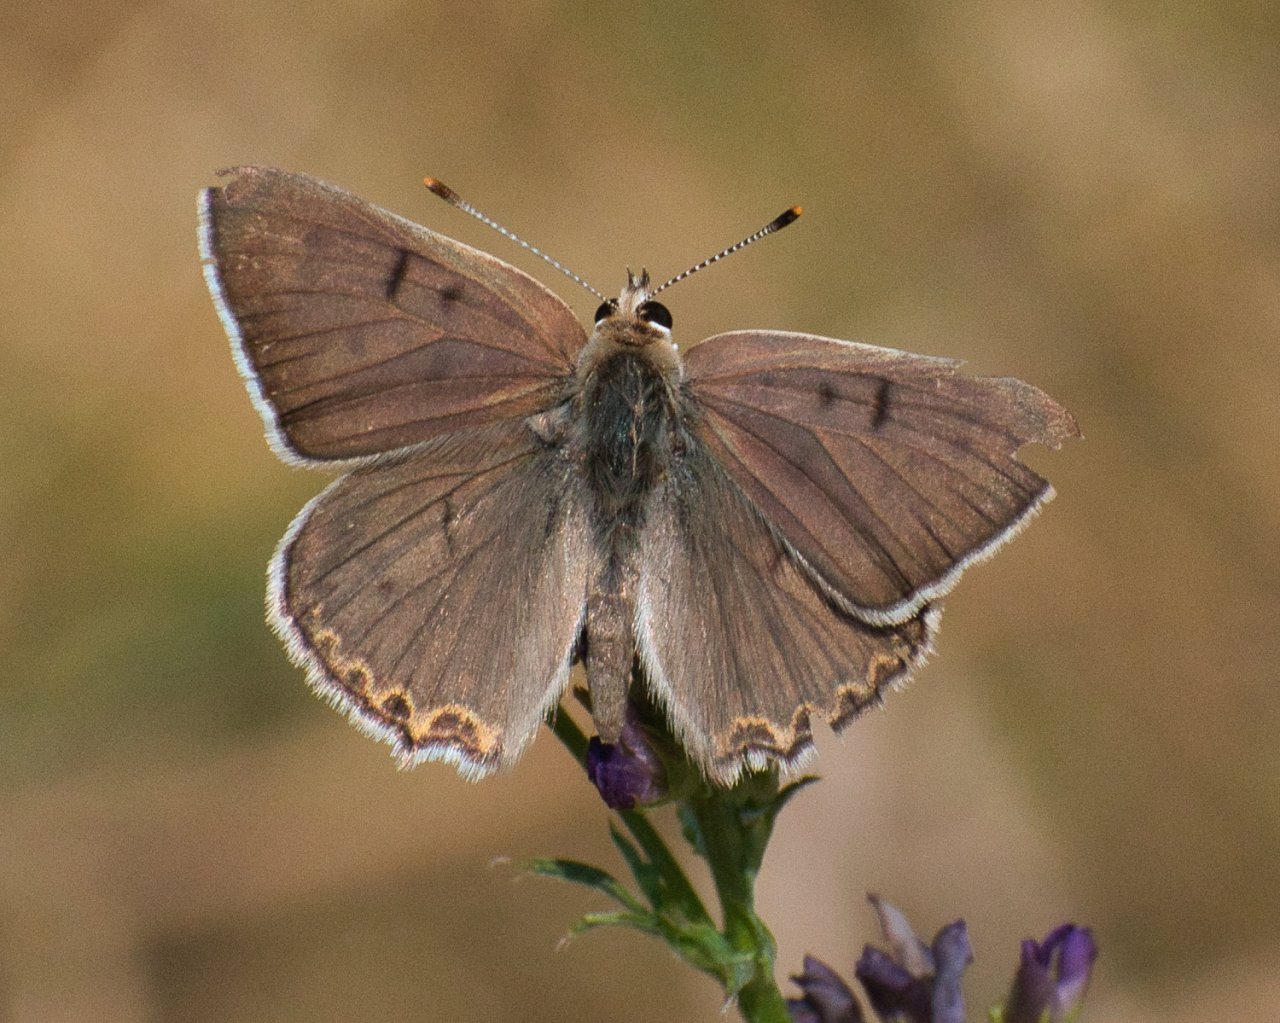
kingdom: Animalia
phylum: Arthropoda
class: Insecta
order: Lepidoptera
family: Lycaenidae
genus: Lycaena
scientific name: Lycaena editha
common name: Edith's Copper
